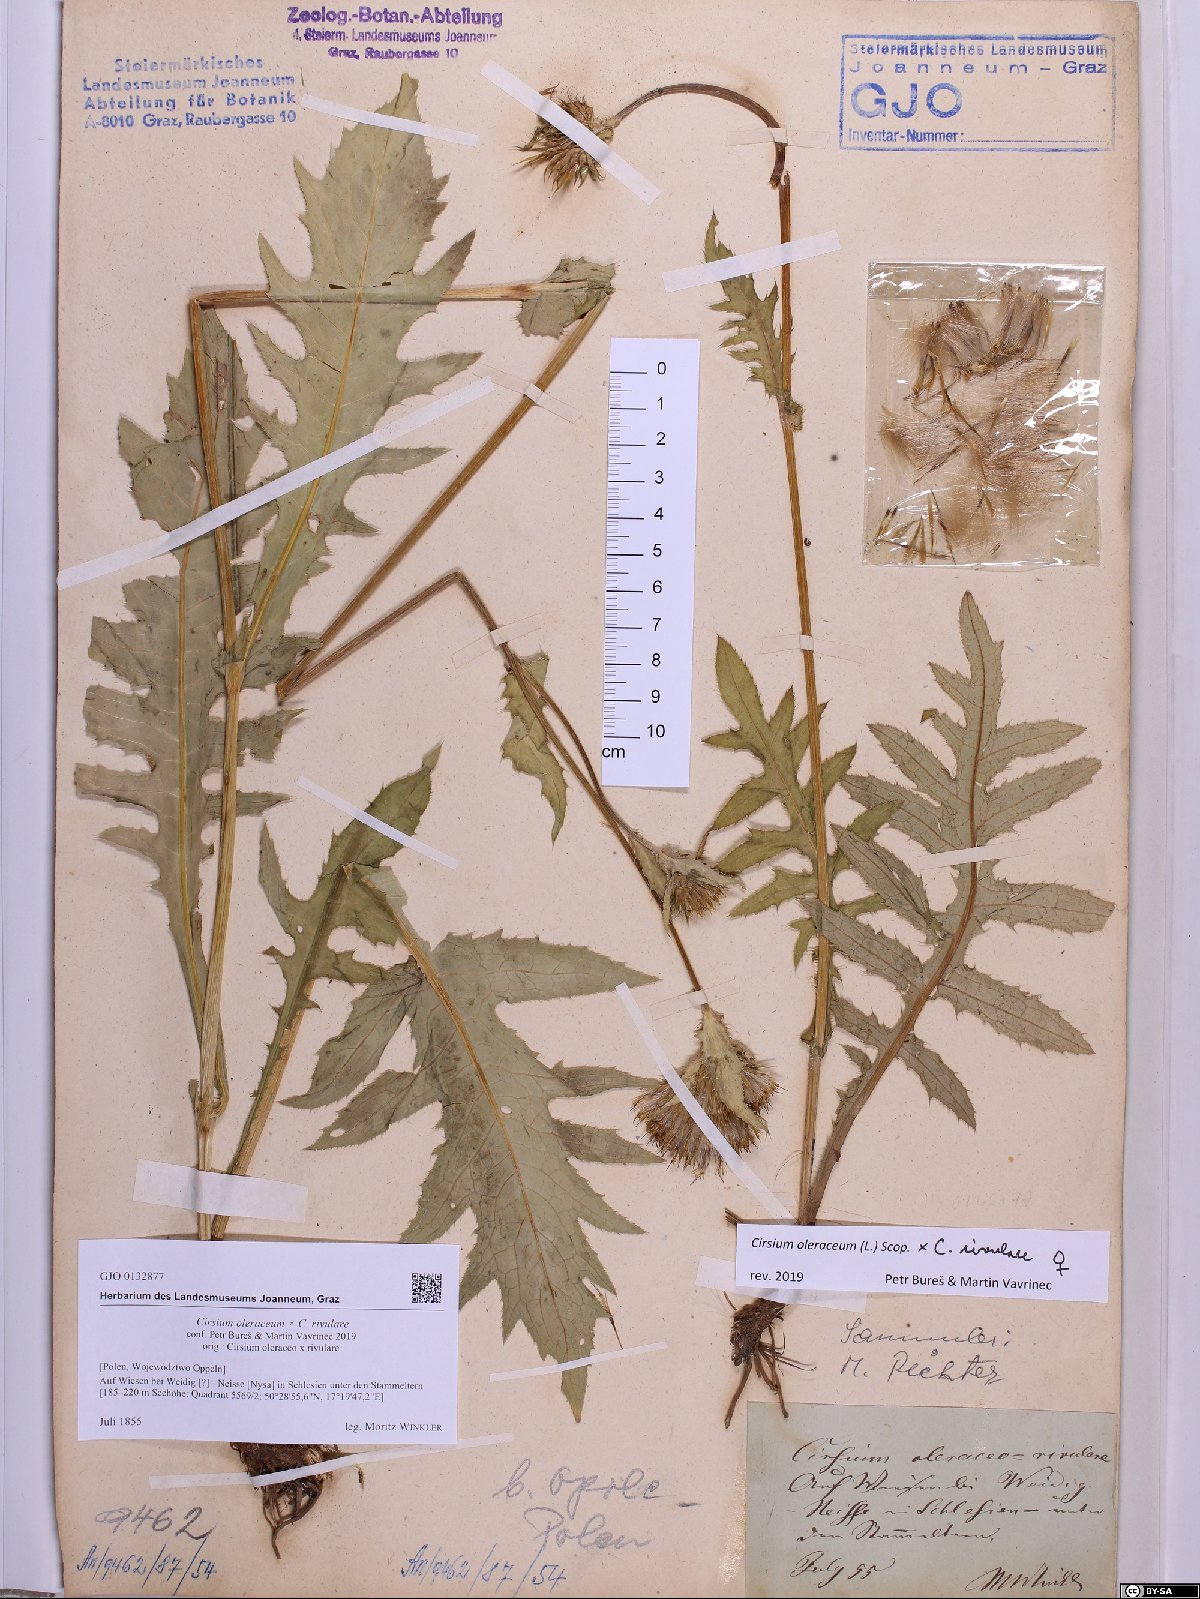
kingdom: Plantae
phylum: Tracheophyta
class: Magnoliopsida
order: Asterales
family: Asteraceae
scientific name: Asteraceae
